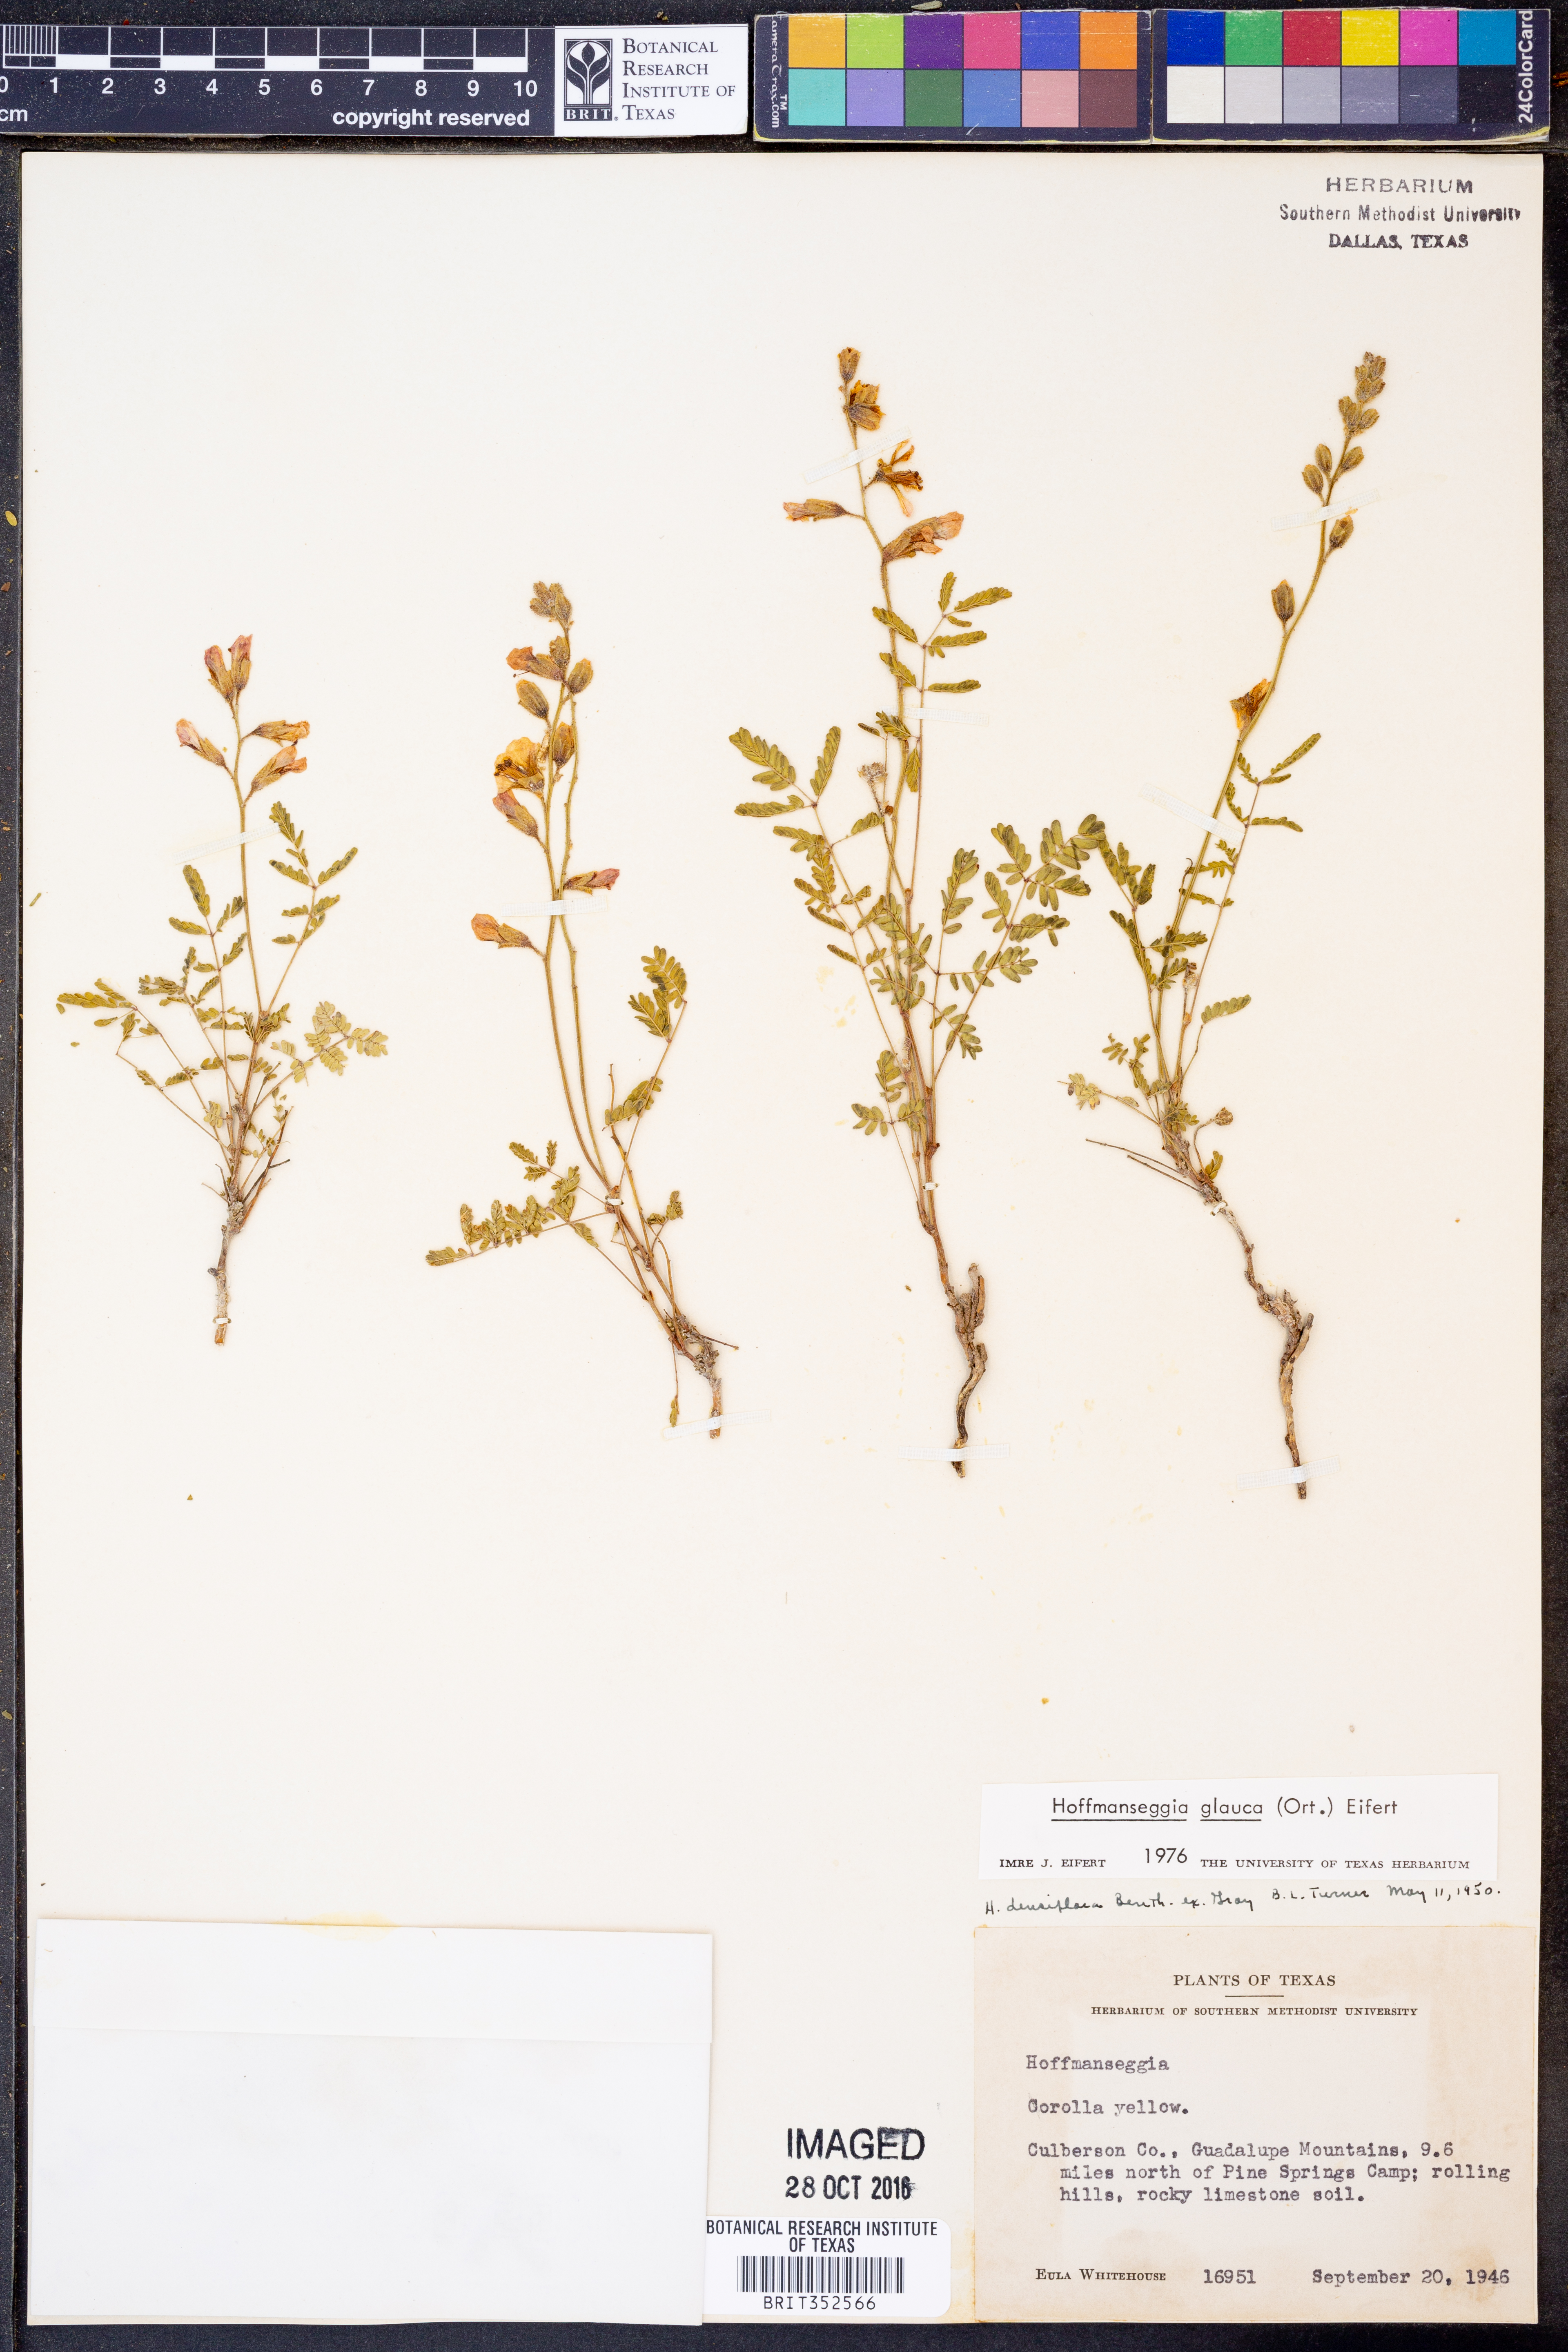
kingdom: Plantae
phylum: Tracheophyta
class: Magnoliopsida
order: Fabales
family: Fabaceae
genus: Hoffmannseggia
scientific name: Hoffmannseggia glauca
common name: Pignut
